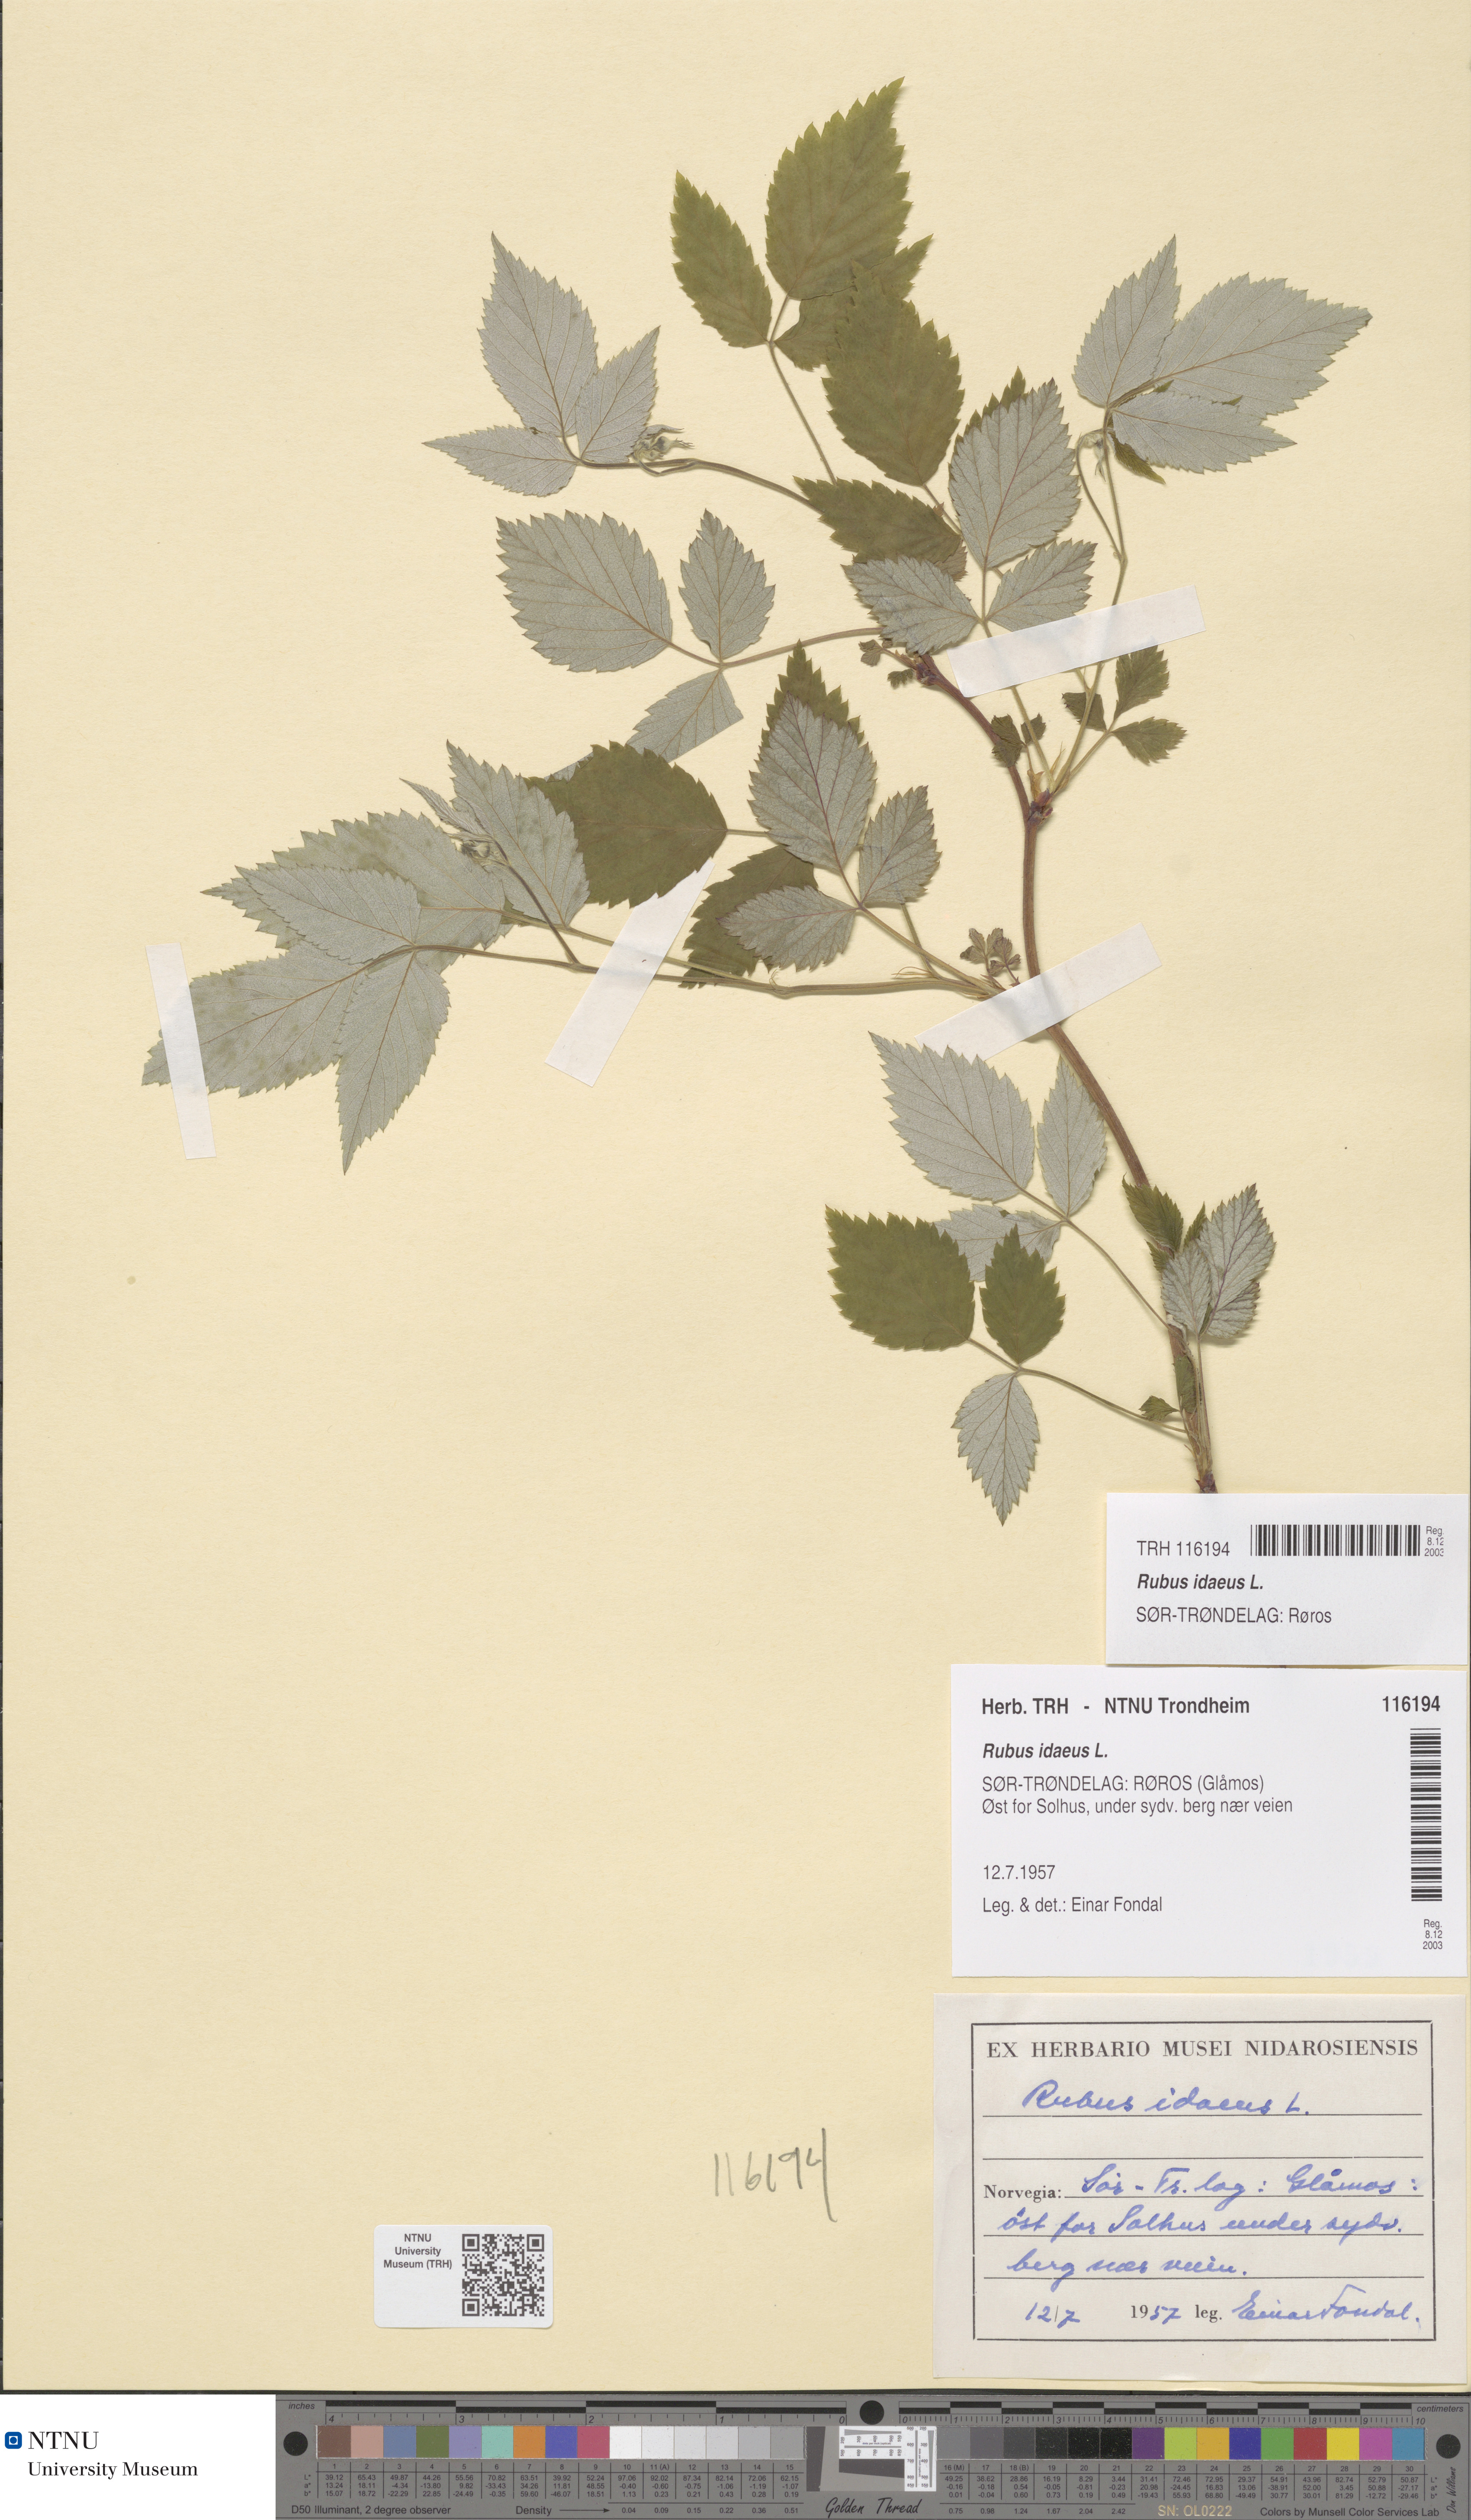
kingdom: Plantae
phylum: Tracheophyta
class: Magnoliopsida
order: Rosales
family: Rosaceae
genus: Rubus
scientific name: Rubus idaeus
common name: Raspberry
